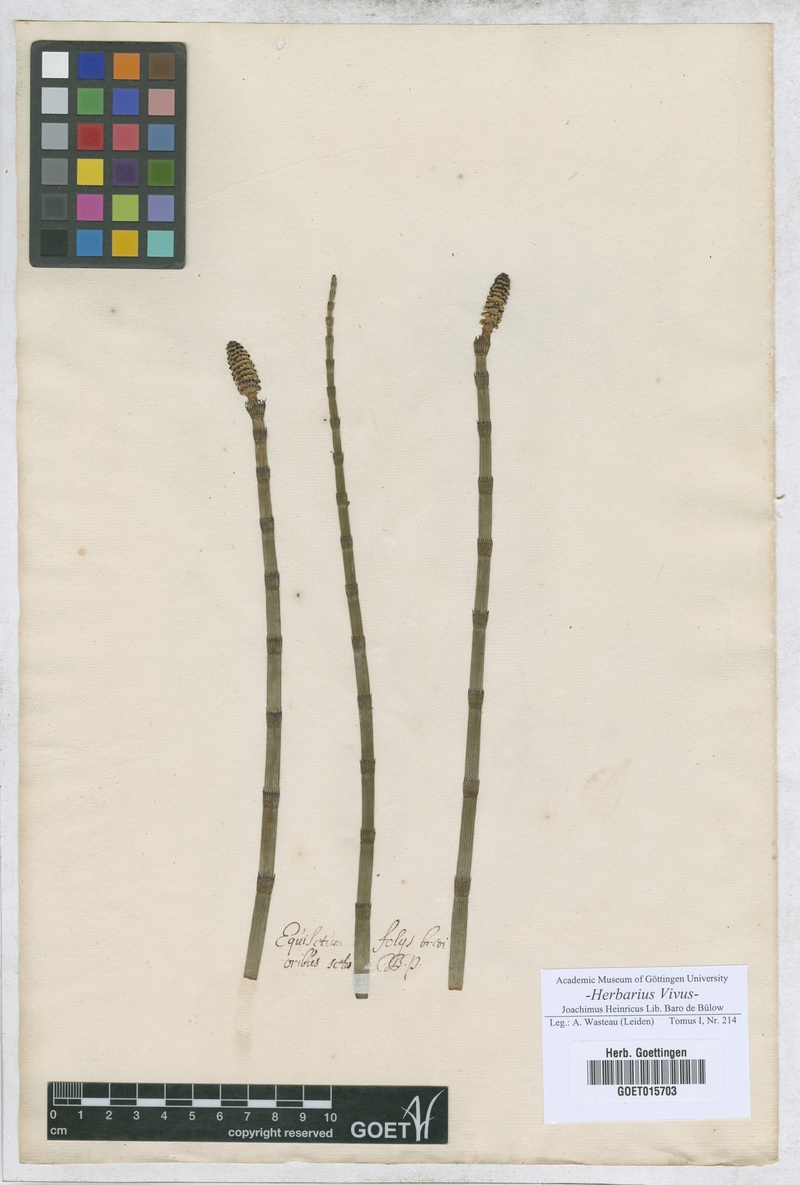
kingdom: Plantae
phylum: Tracheophyta
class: Polypodiopsida
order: Equisetales
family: Equisetaceae
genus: Equisetum
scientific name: Equisetum
